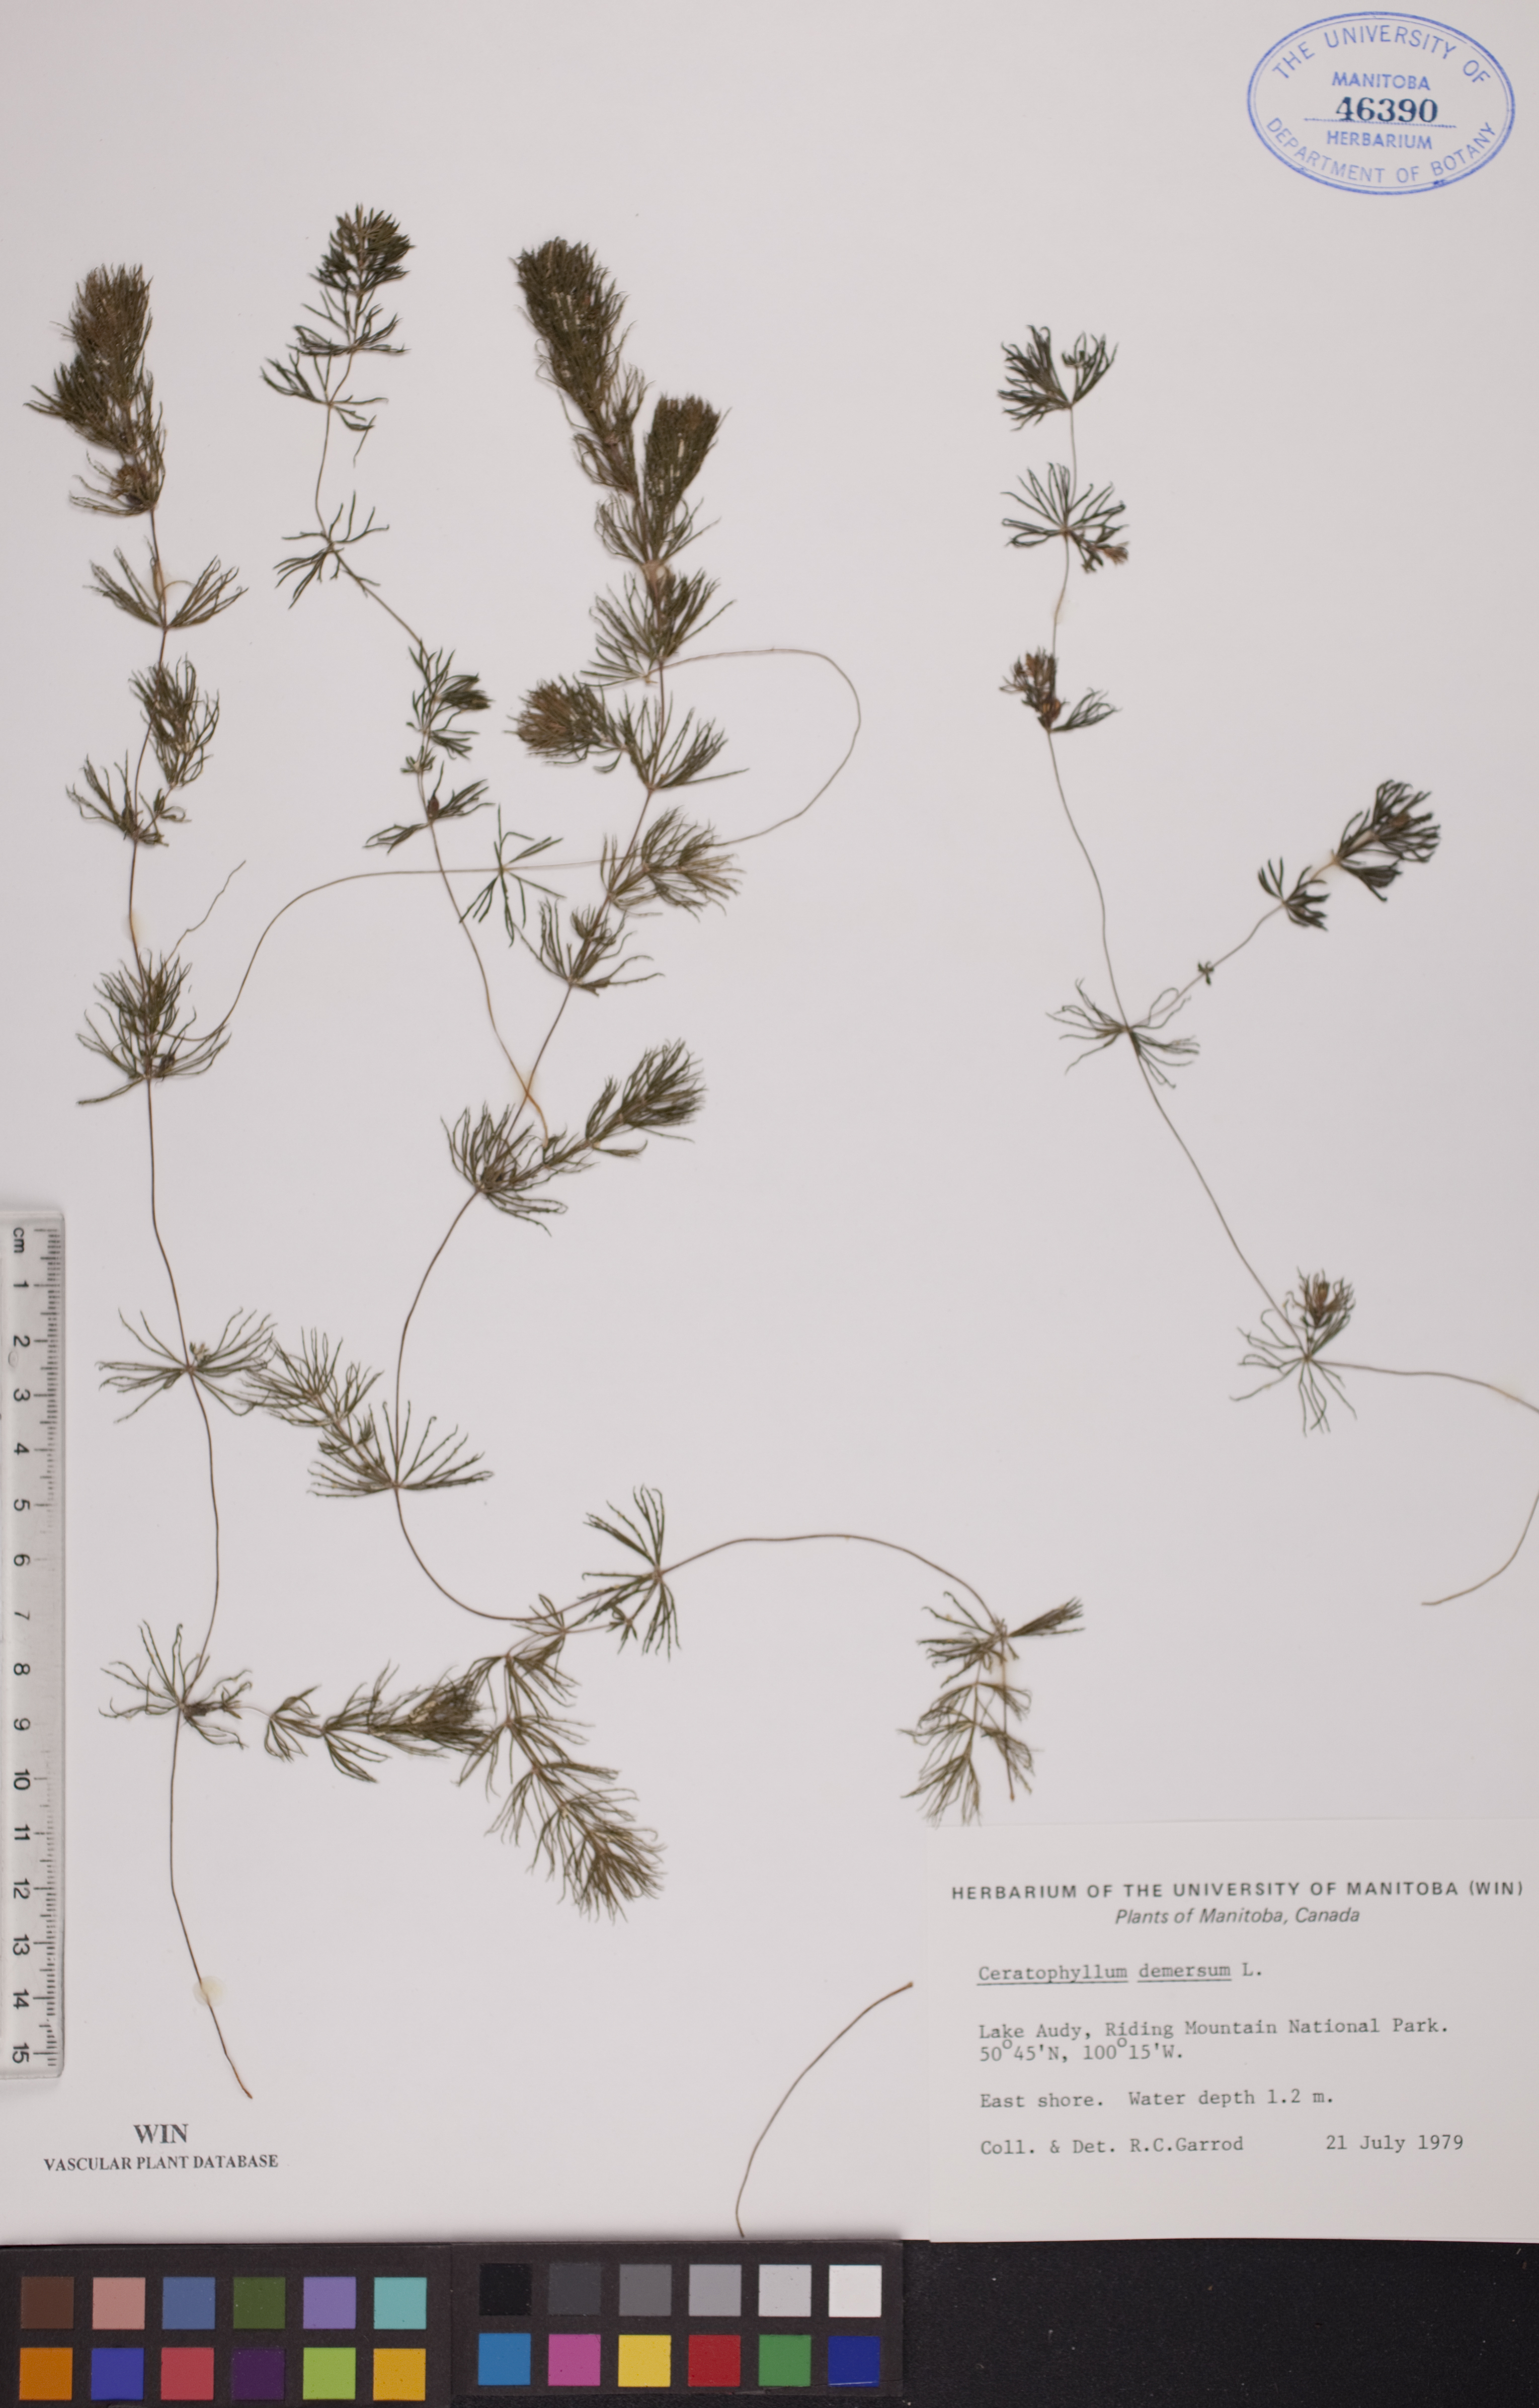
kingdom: Plantae
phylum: Tracheophyta
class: Magnoliopsida
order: Ceratophyllales
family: Ceratophyllaceae
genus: Ceratophyllum
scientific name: Ceratophyllum demersum
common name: Rigid hornwort
